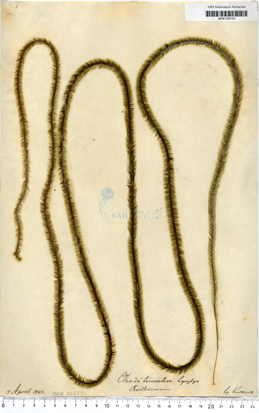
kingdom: Chromista
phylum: Ochrophyta
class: Phaeophyceae
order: Tilopteridales
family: Halosiphonaceae
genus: Halosiphon
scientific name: Halosiphon tomentosus
